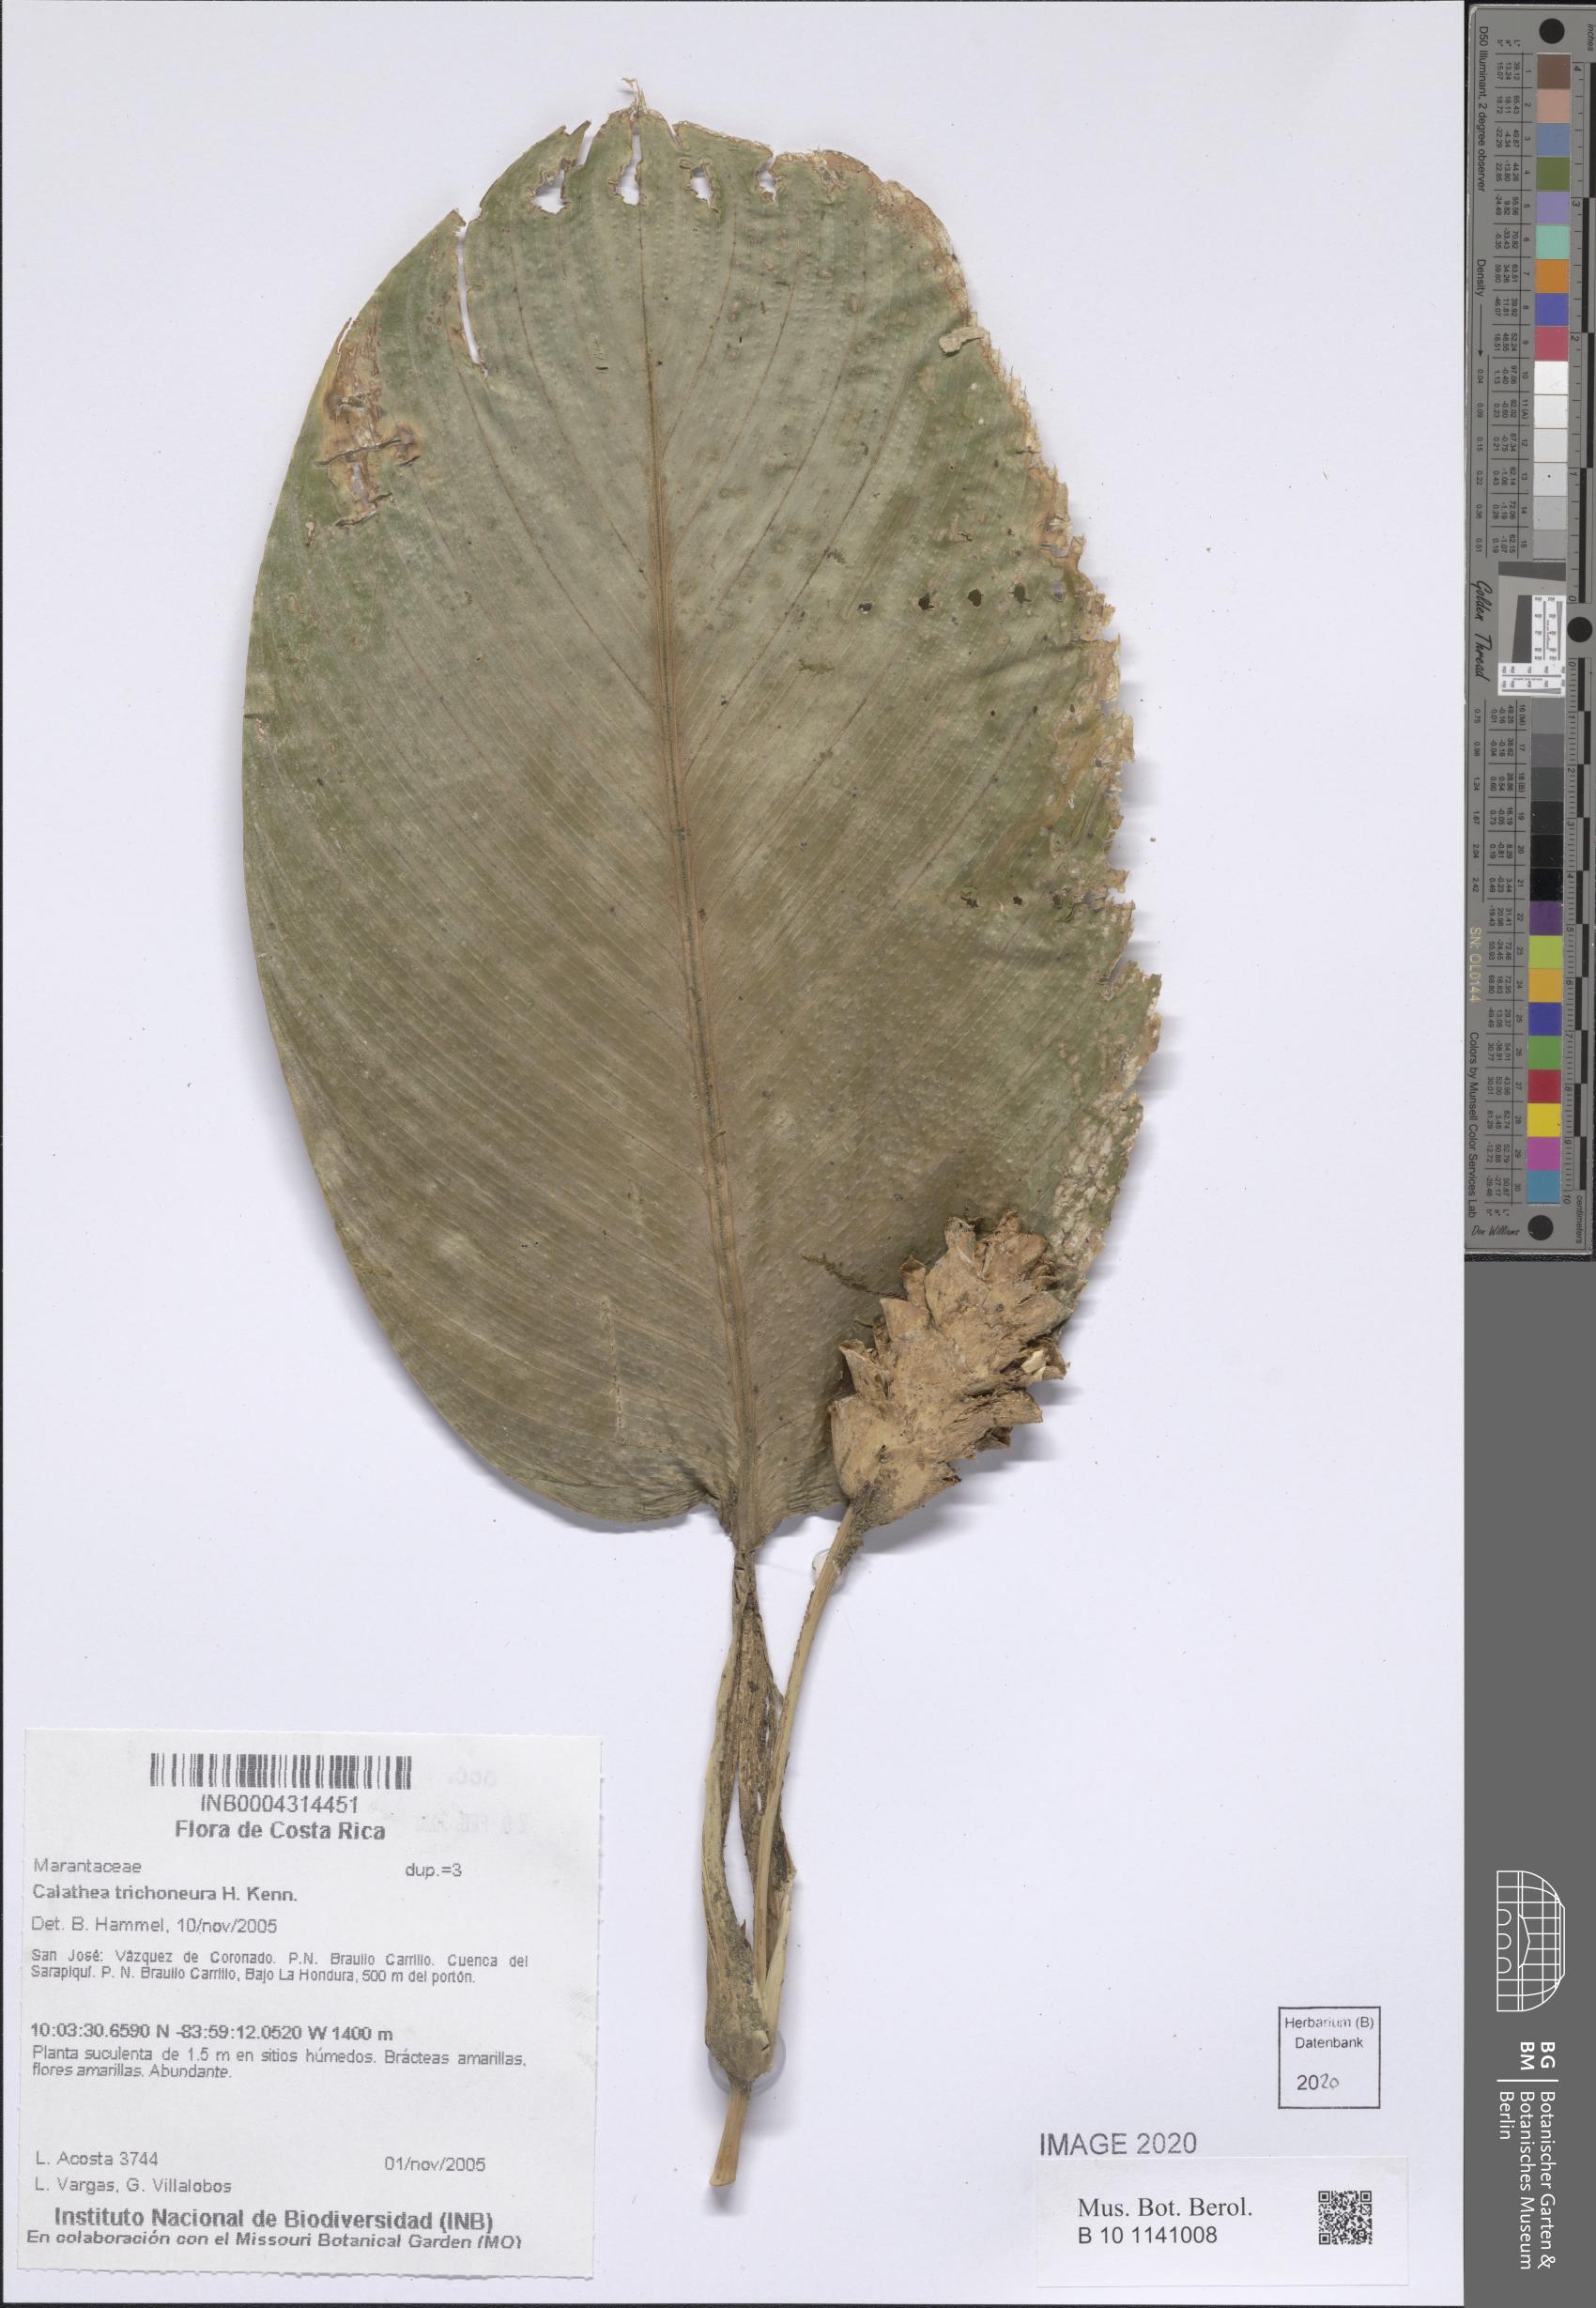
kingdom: Plantae
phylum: Tracheophyta
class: Liliopsida
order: Zingiberales
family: Marantaceae
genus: Goeppertia
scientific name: Goeppertia trichoneura
